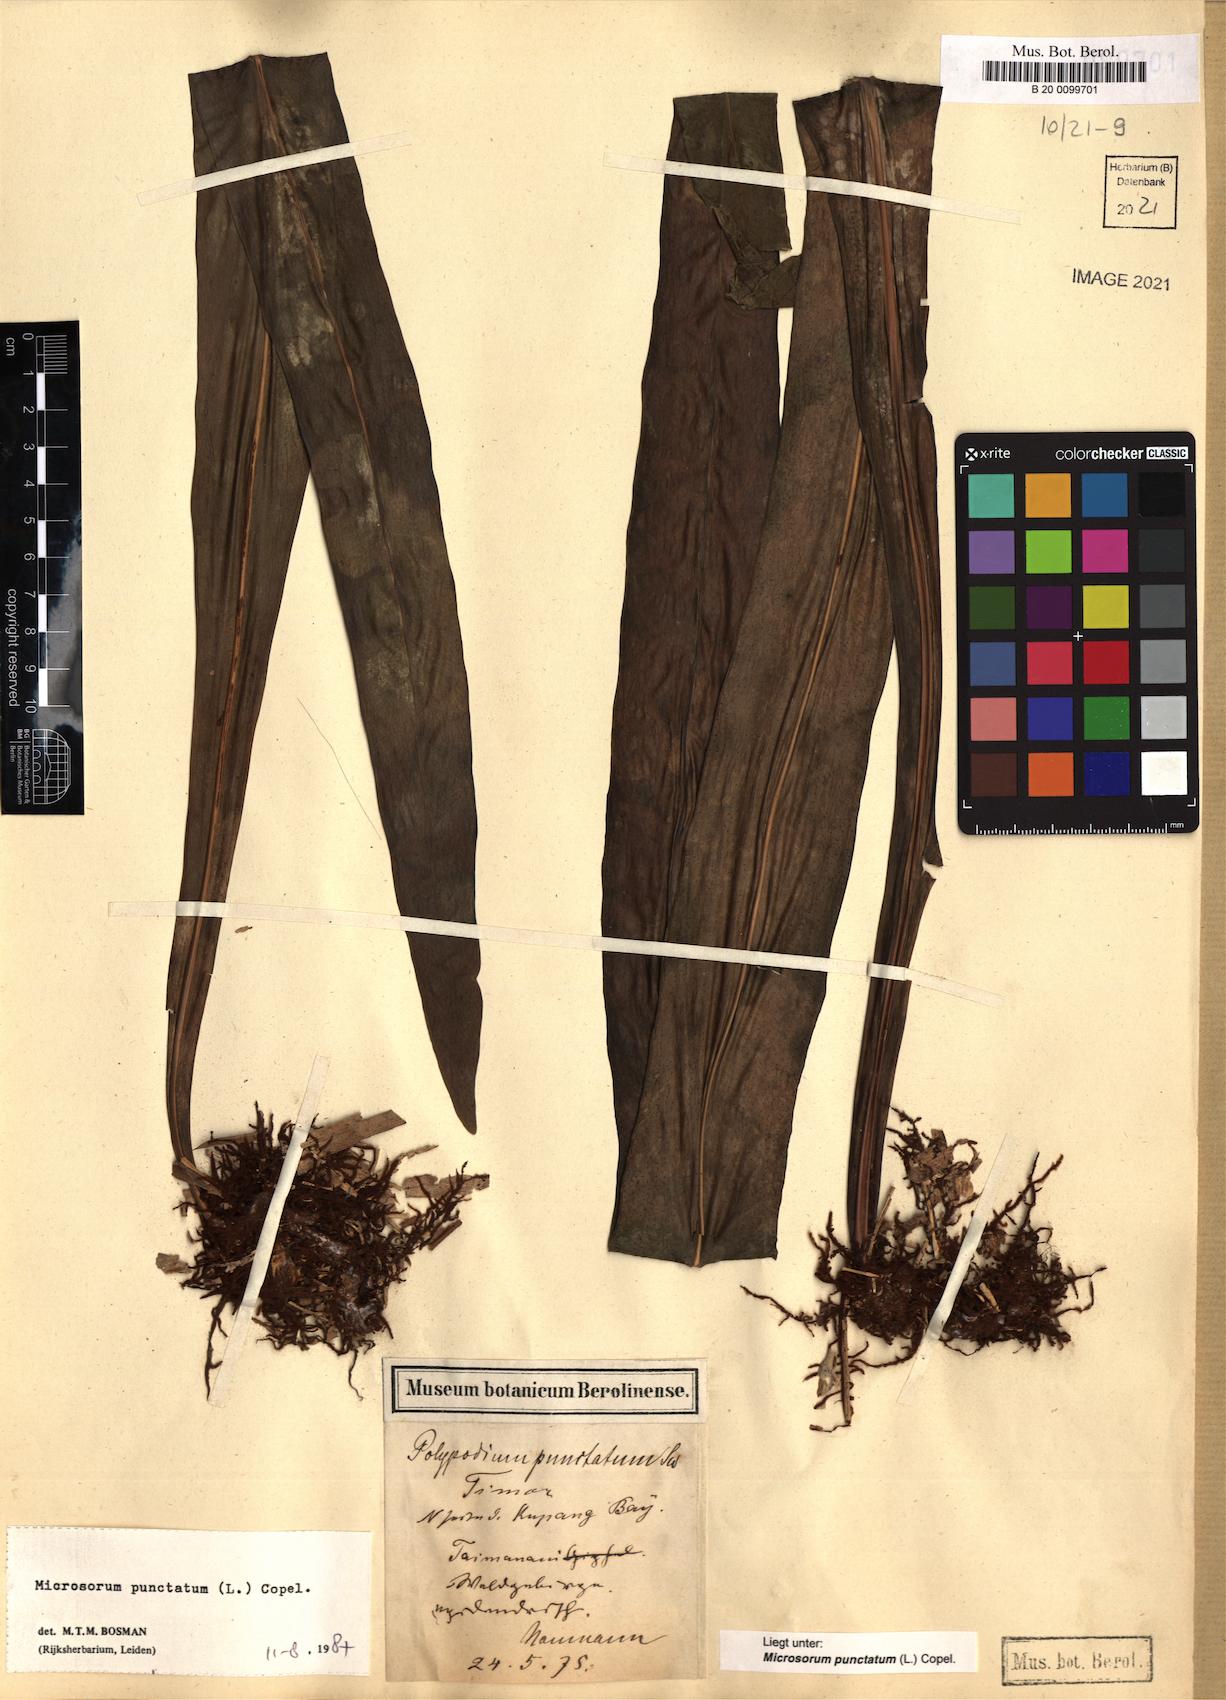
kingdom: Plantae
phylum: Tracheophyta
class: Polypodiopsida
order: Polypodiales
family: Polypodiaceae
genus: Microsorum
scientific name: Microsorum punctatum
